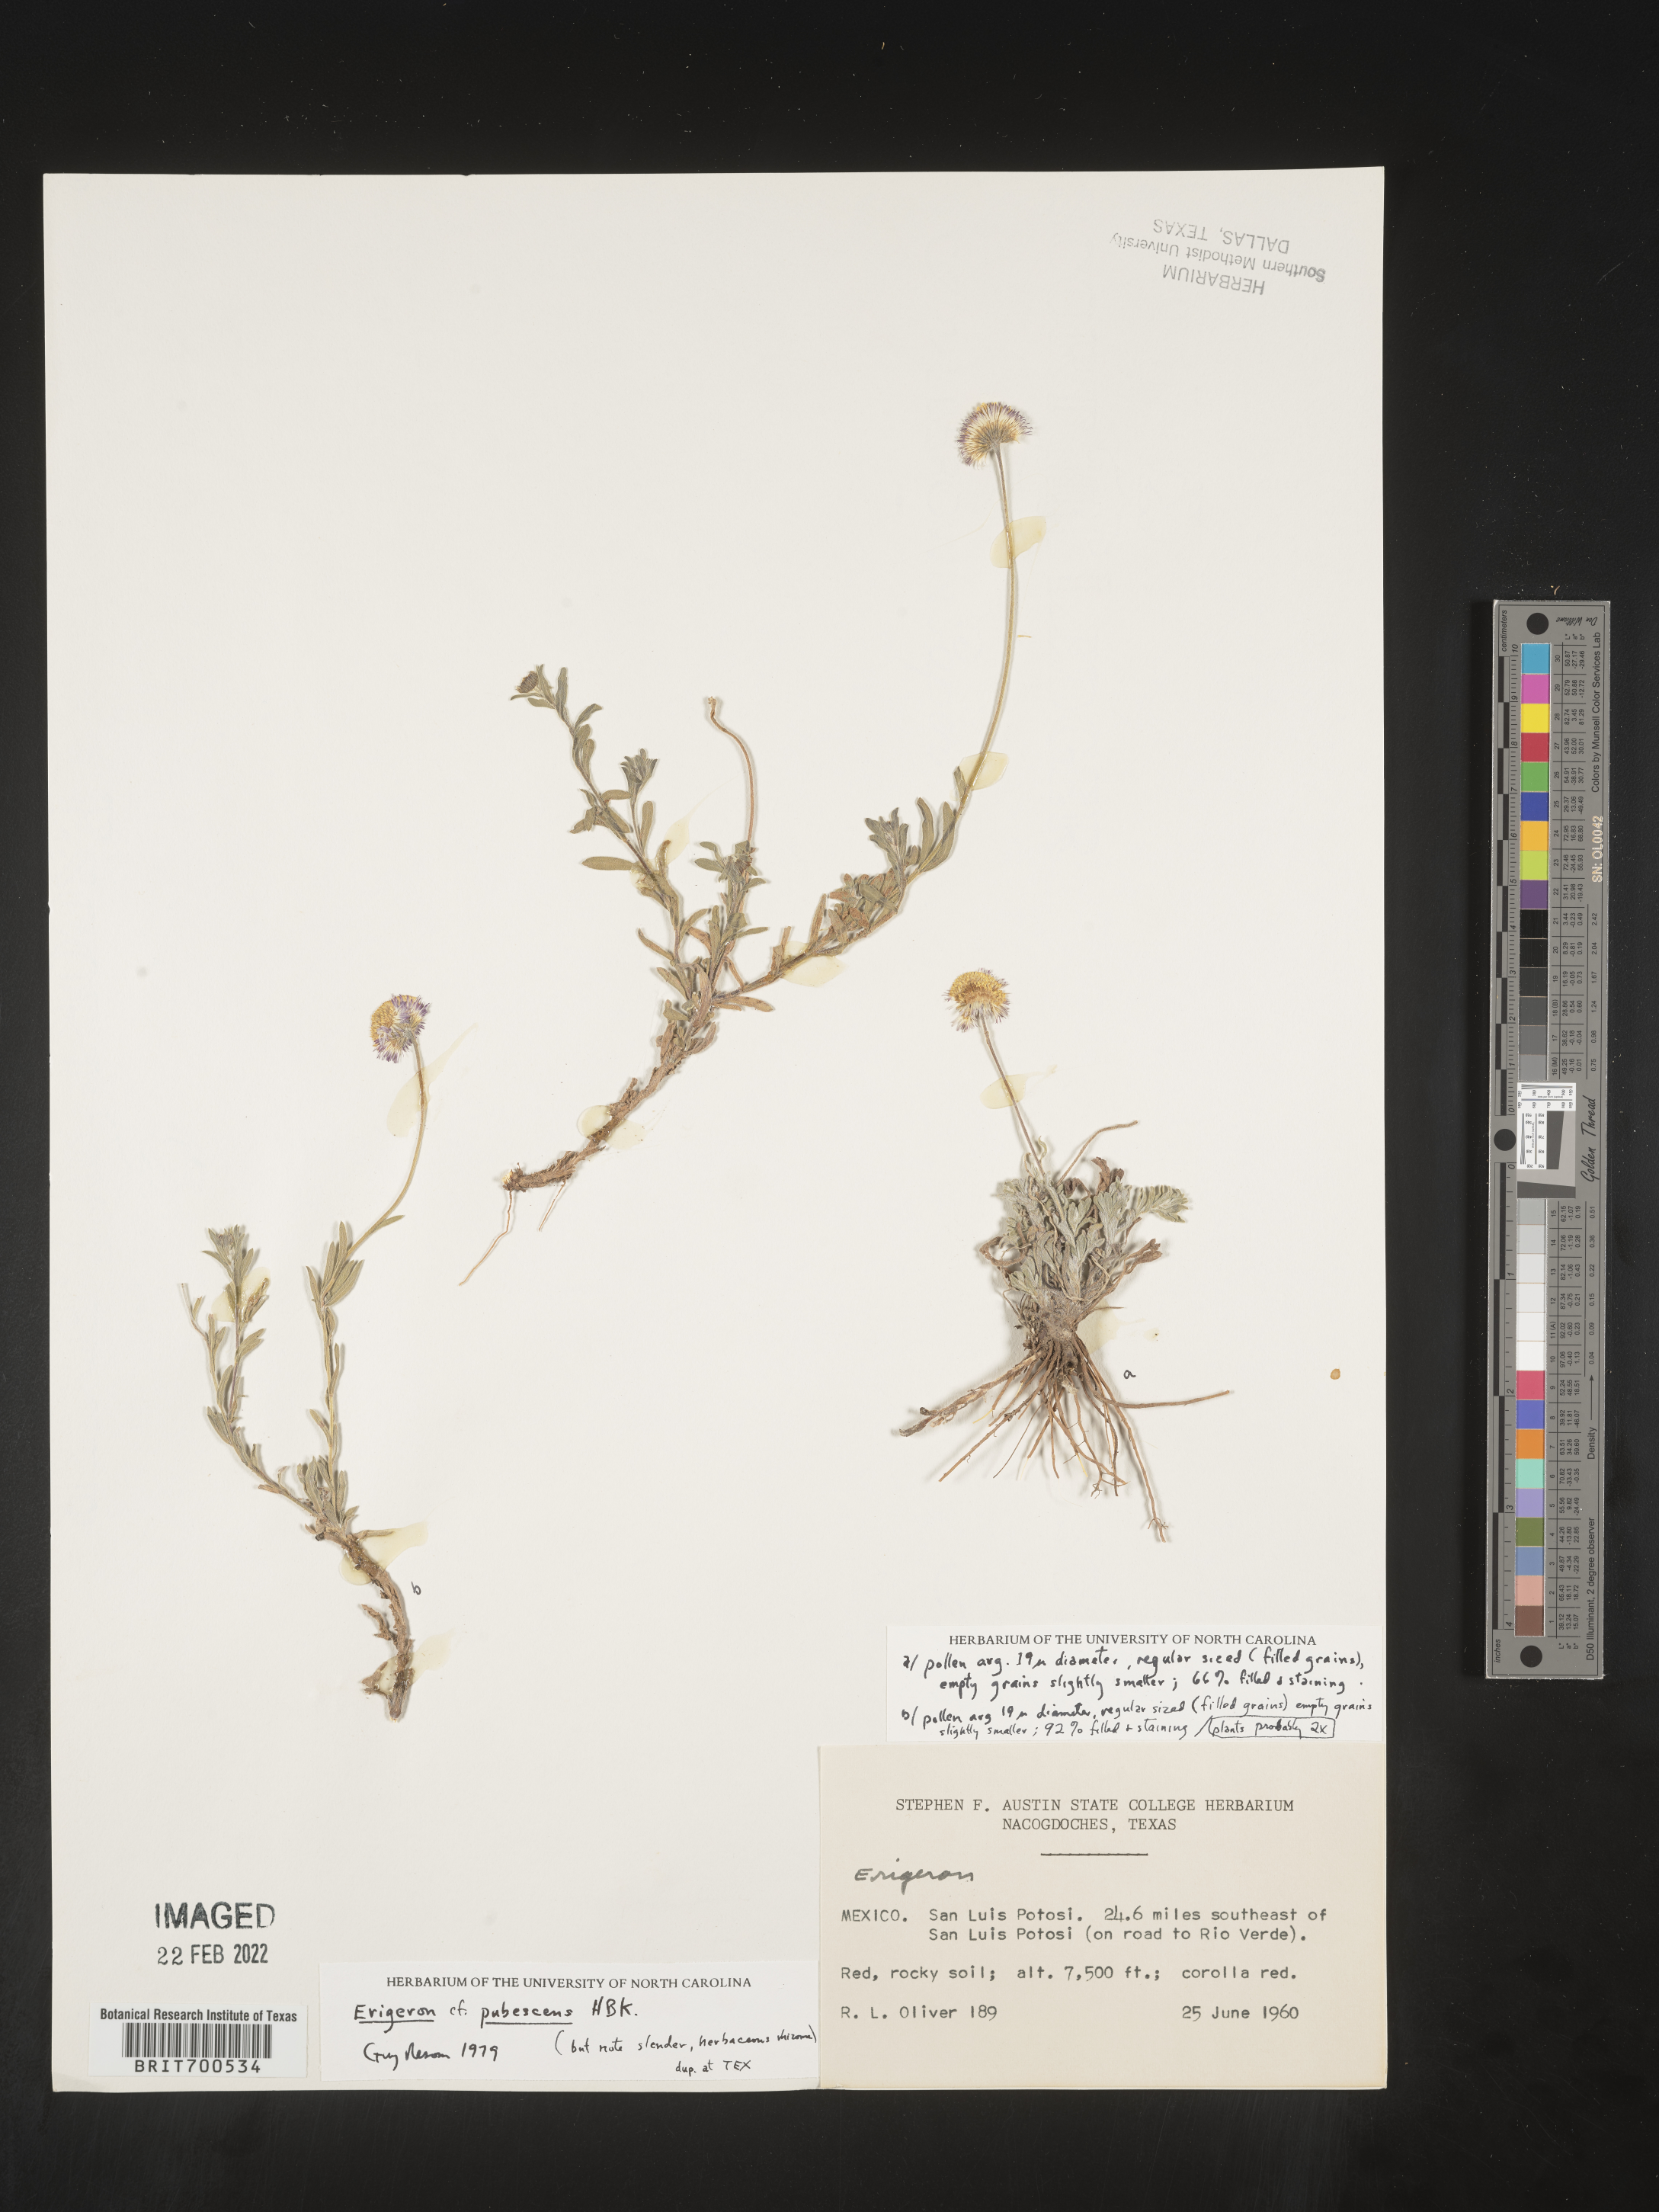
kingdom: Plantae
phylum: Tracheophyta
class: Magnoliopsida
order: Asterales
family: Asteraceae
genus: Erigeron
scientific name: Erigeron pubescens
